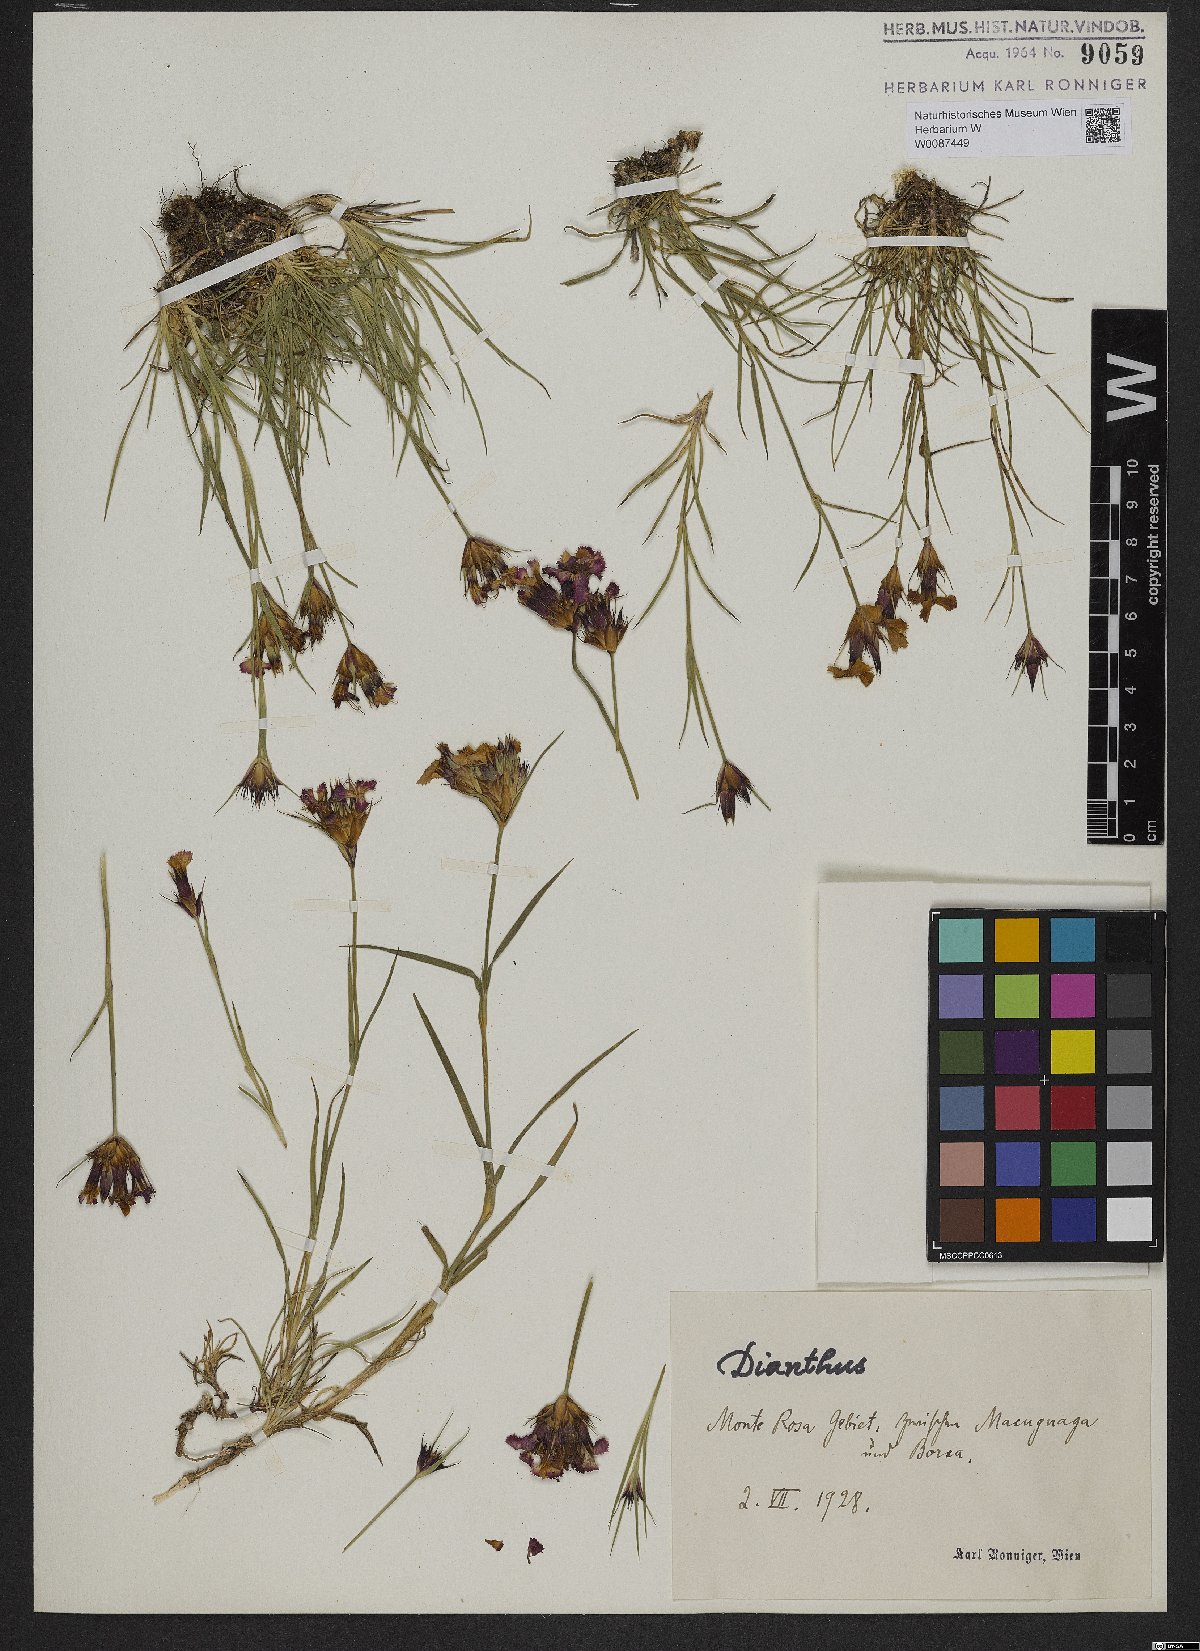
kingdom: Plantae
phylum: Tracheophyta
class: Magnoliopsida
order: Caryophyllales
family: Caryophyllaceae
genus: Dianthus
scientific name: Dianthus
